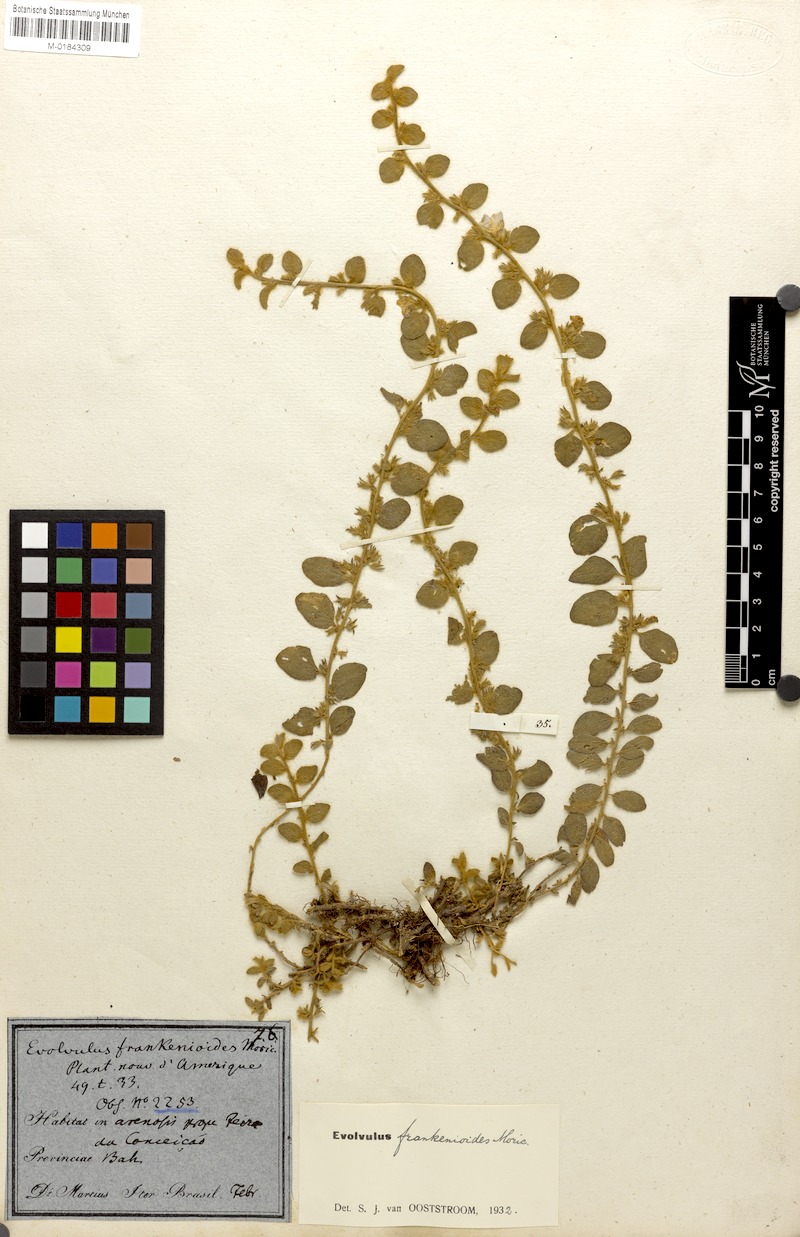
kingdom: Plantae
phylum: Tracheophyta
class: Magnoliopsida
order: Solanales
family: Convolvulaceae
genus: Evolvulus
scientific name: Evolvulus frankenioides
